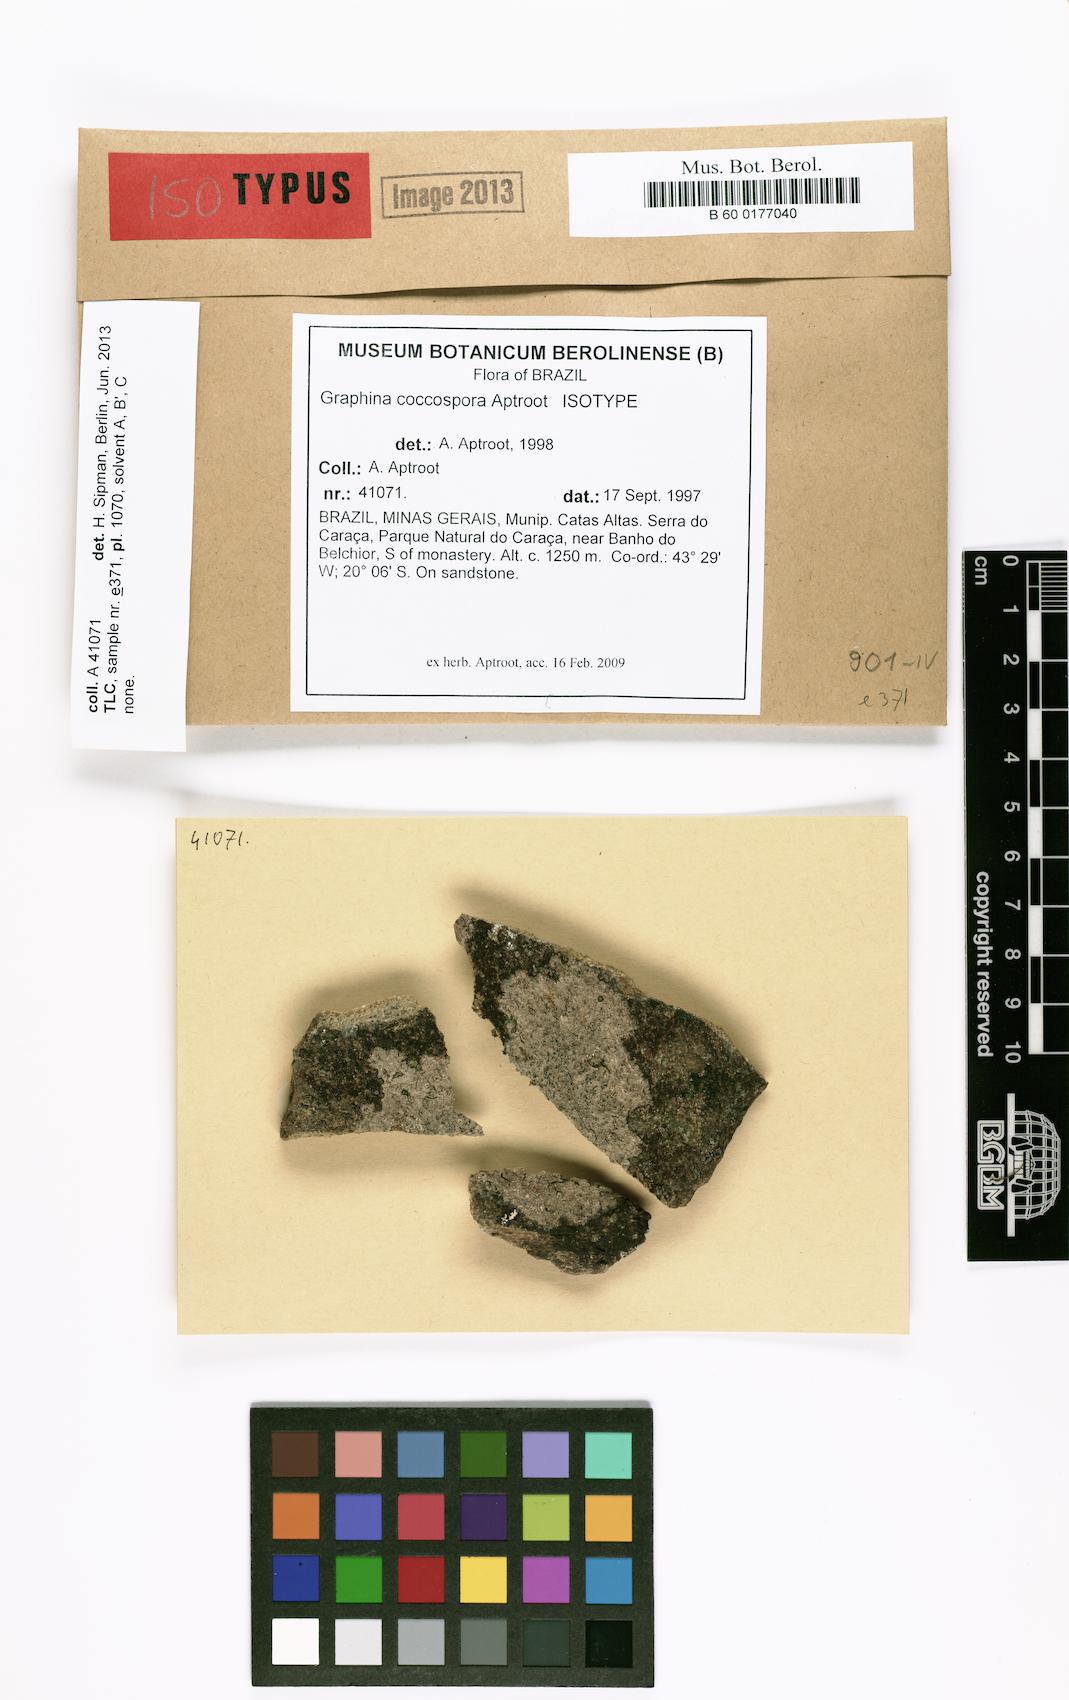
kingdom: Fungi
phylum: Ascomycota
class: Lecanoromycetes
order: Ostropales
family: Graphidaceae
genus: Carbacanthographis
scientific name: Carbacanthographis coccospora
